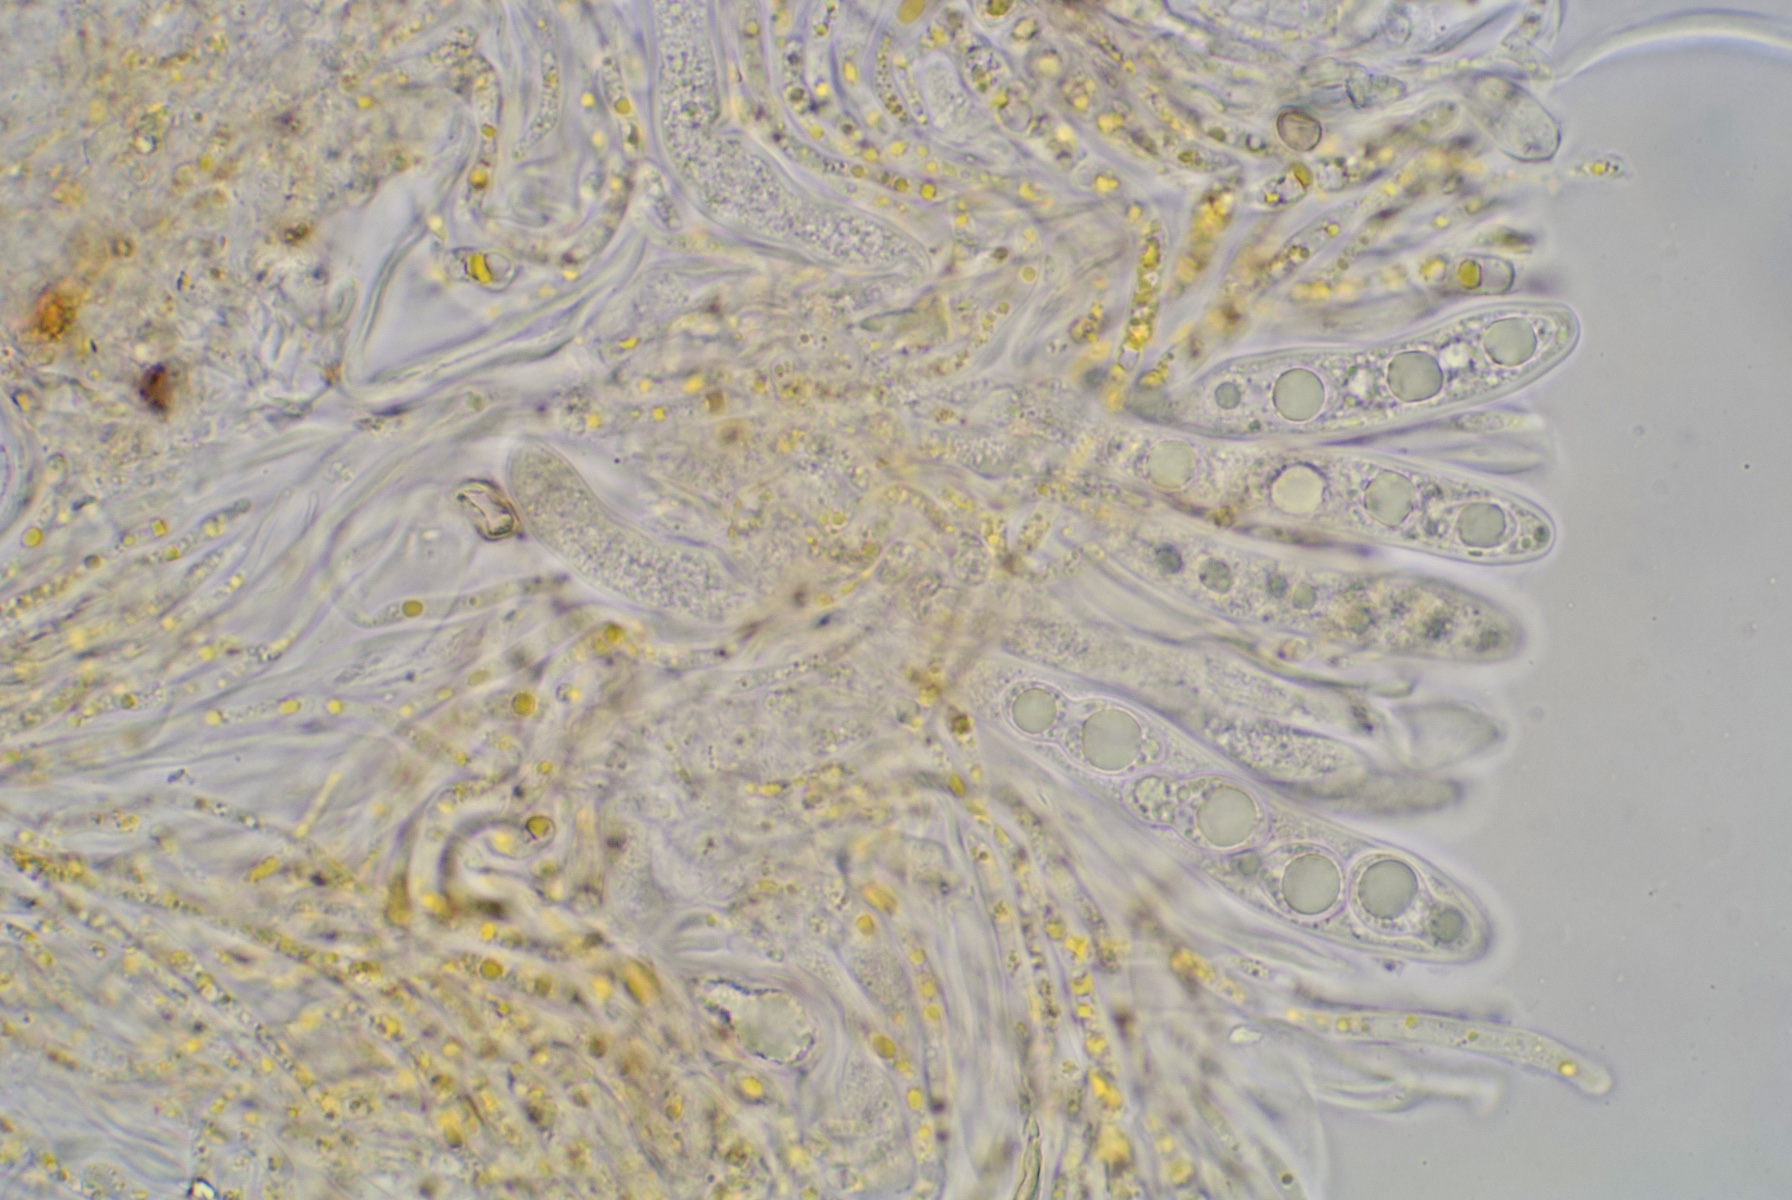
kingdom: Fungi
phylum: Ascomycota
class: Leotiomycetes
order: Helotiales
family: Cenangiaceae
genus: Fabrella
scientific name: Fabrella tsugae
